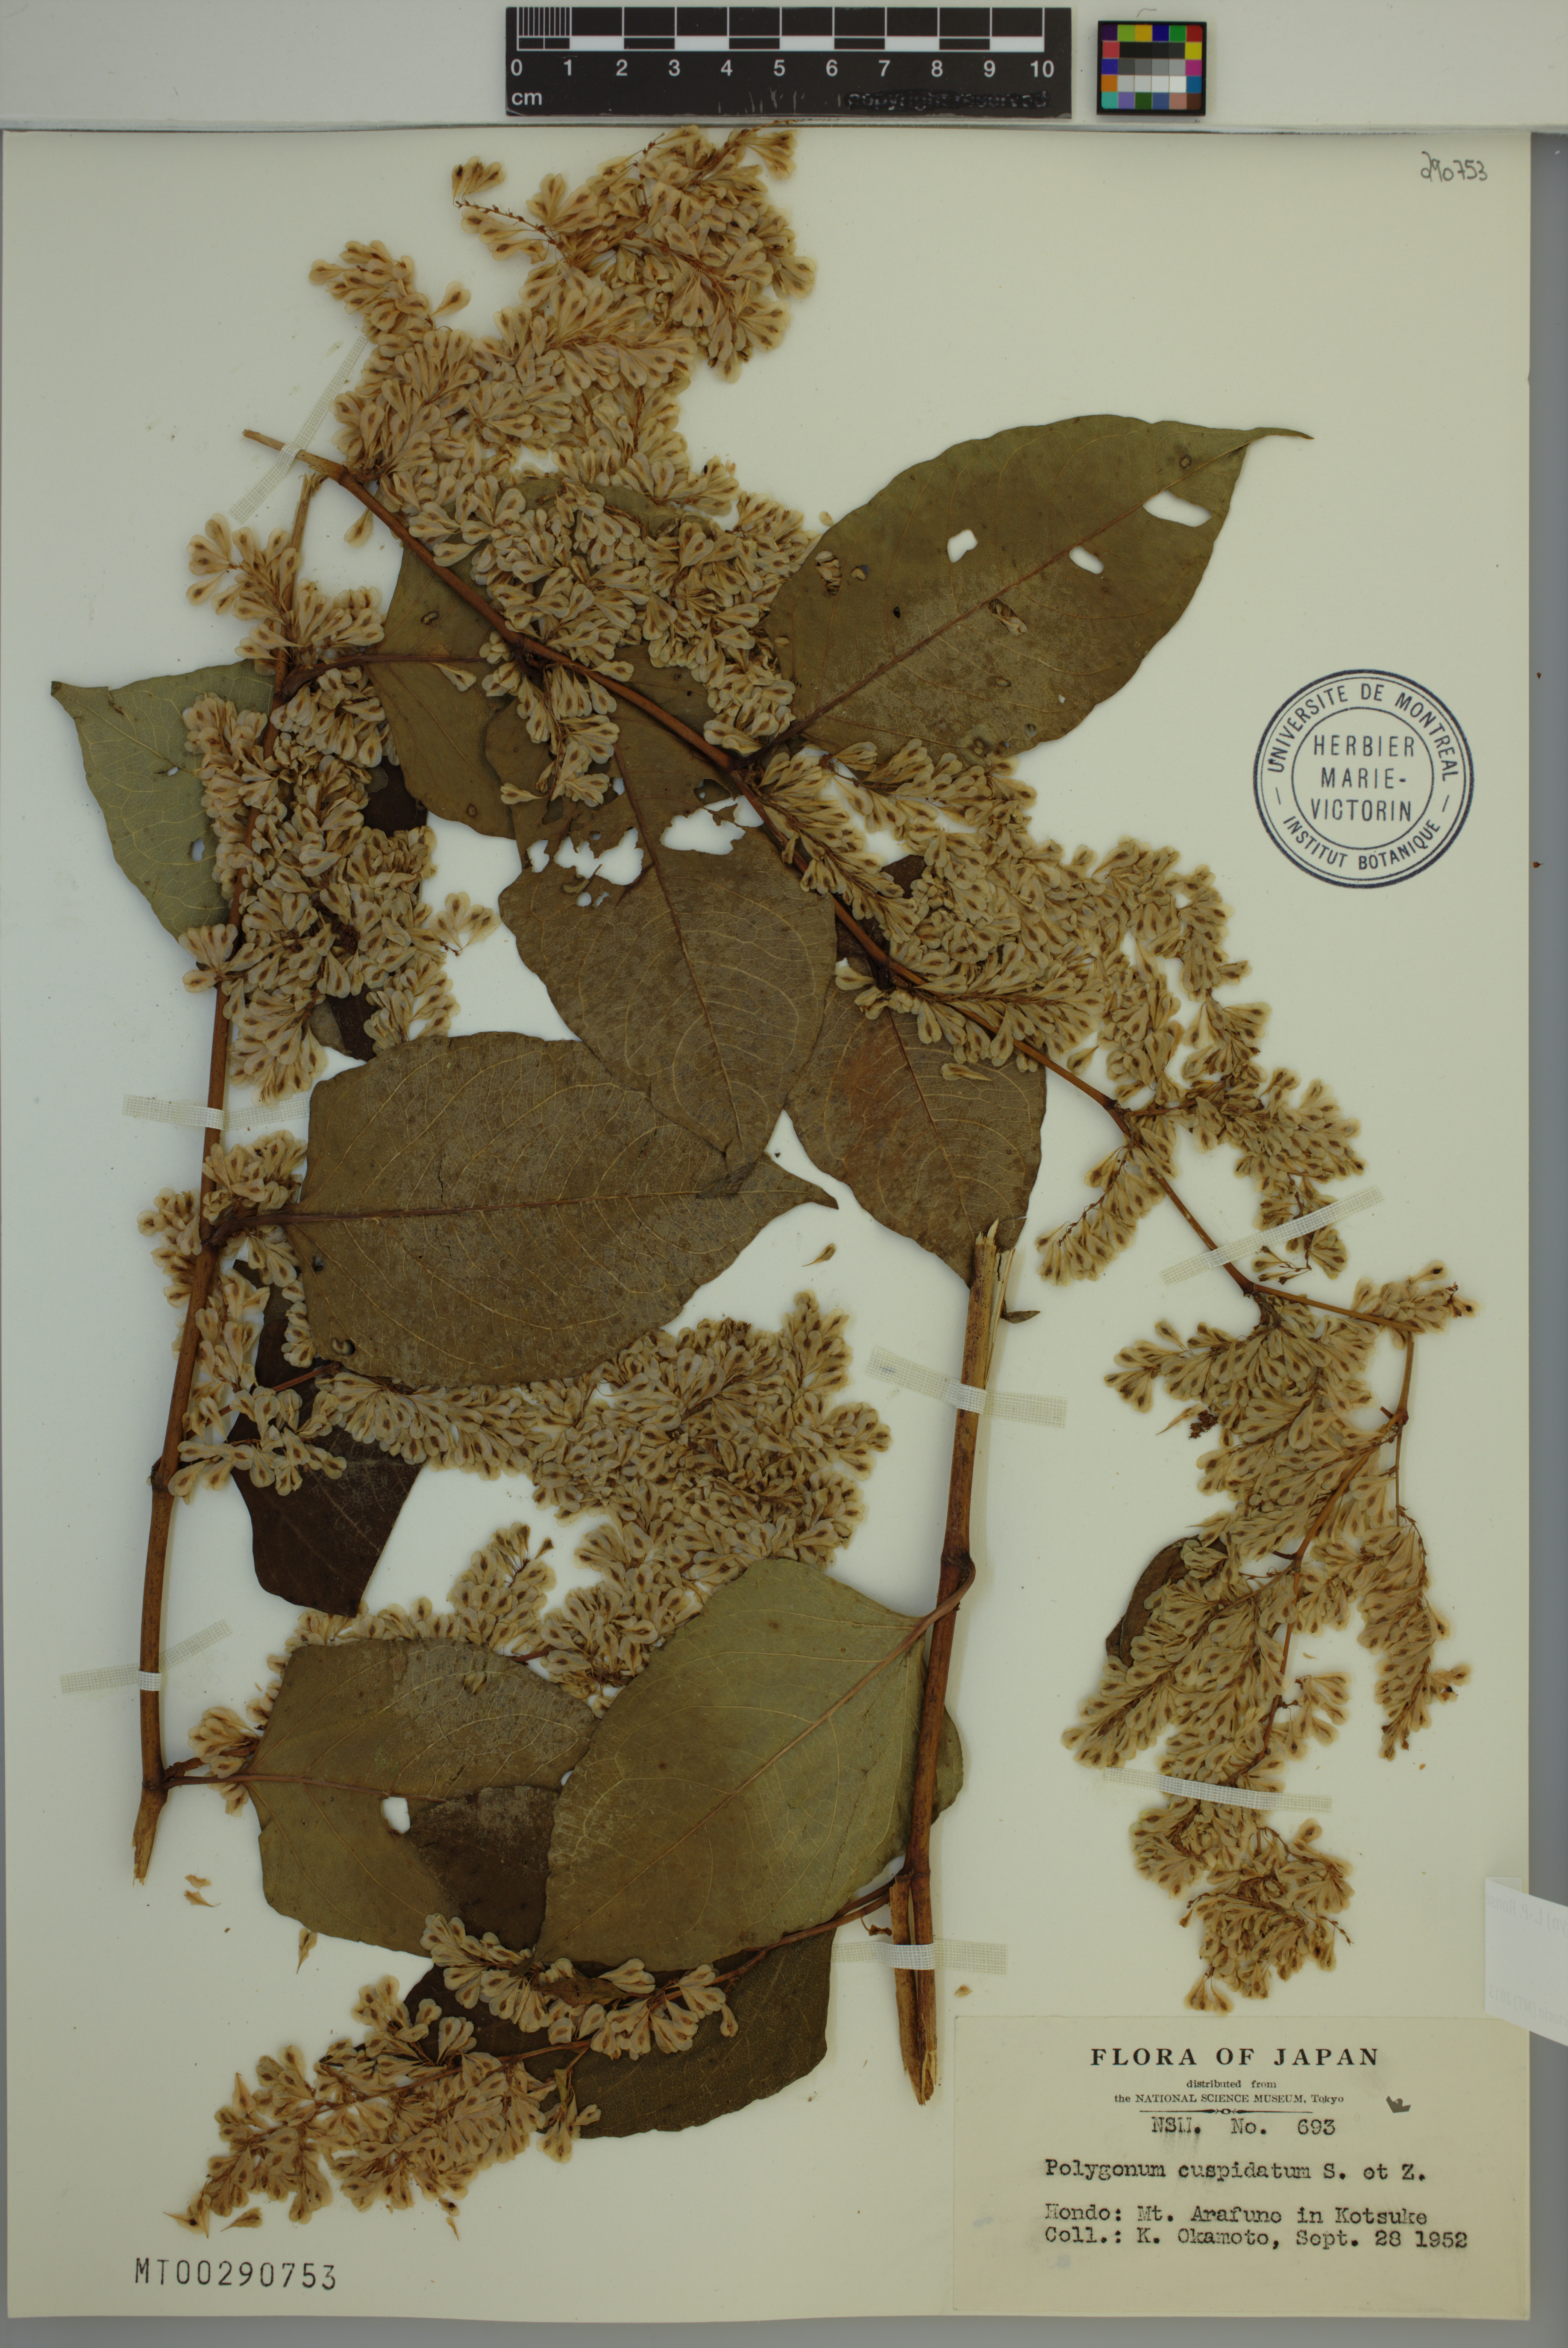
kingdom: Plantae
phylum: Tracheophyta
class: Magnoliopsida
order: Caryophyllales
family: Polygonaceae
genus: Reynoutria
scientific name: Reynoutria japonica
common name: Japanese knotweed
